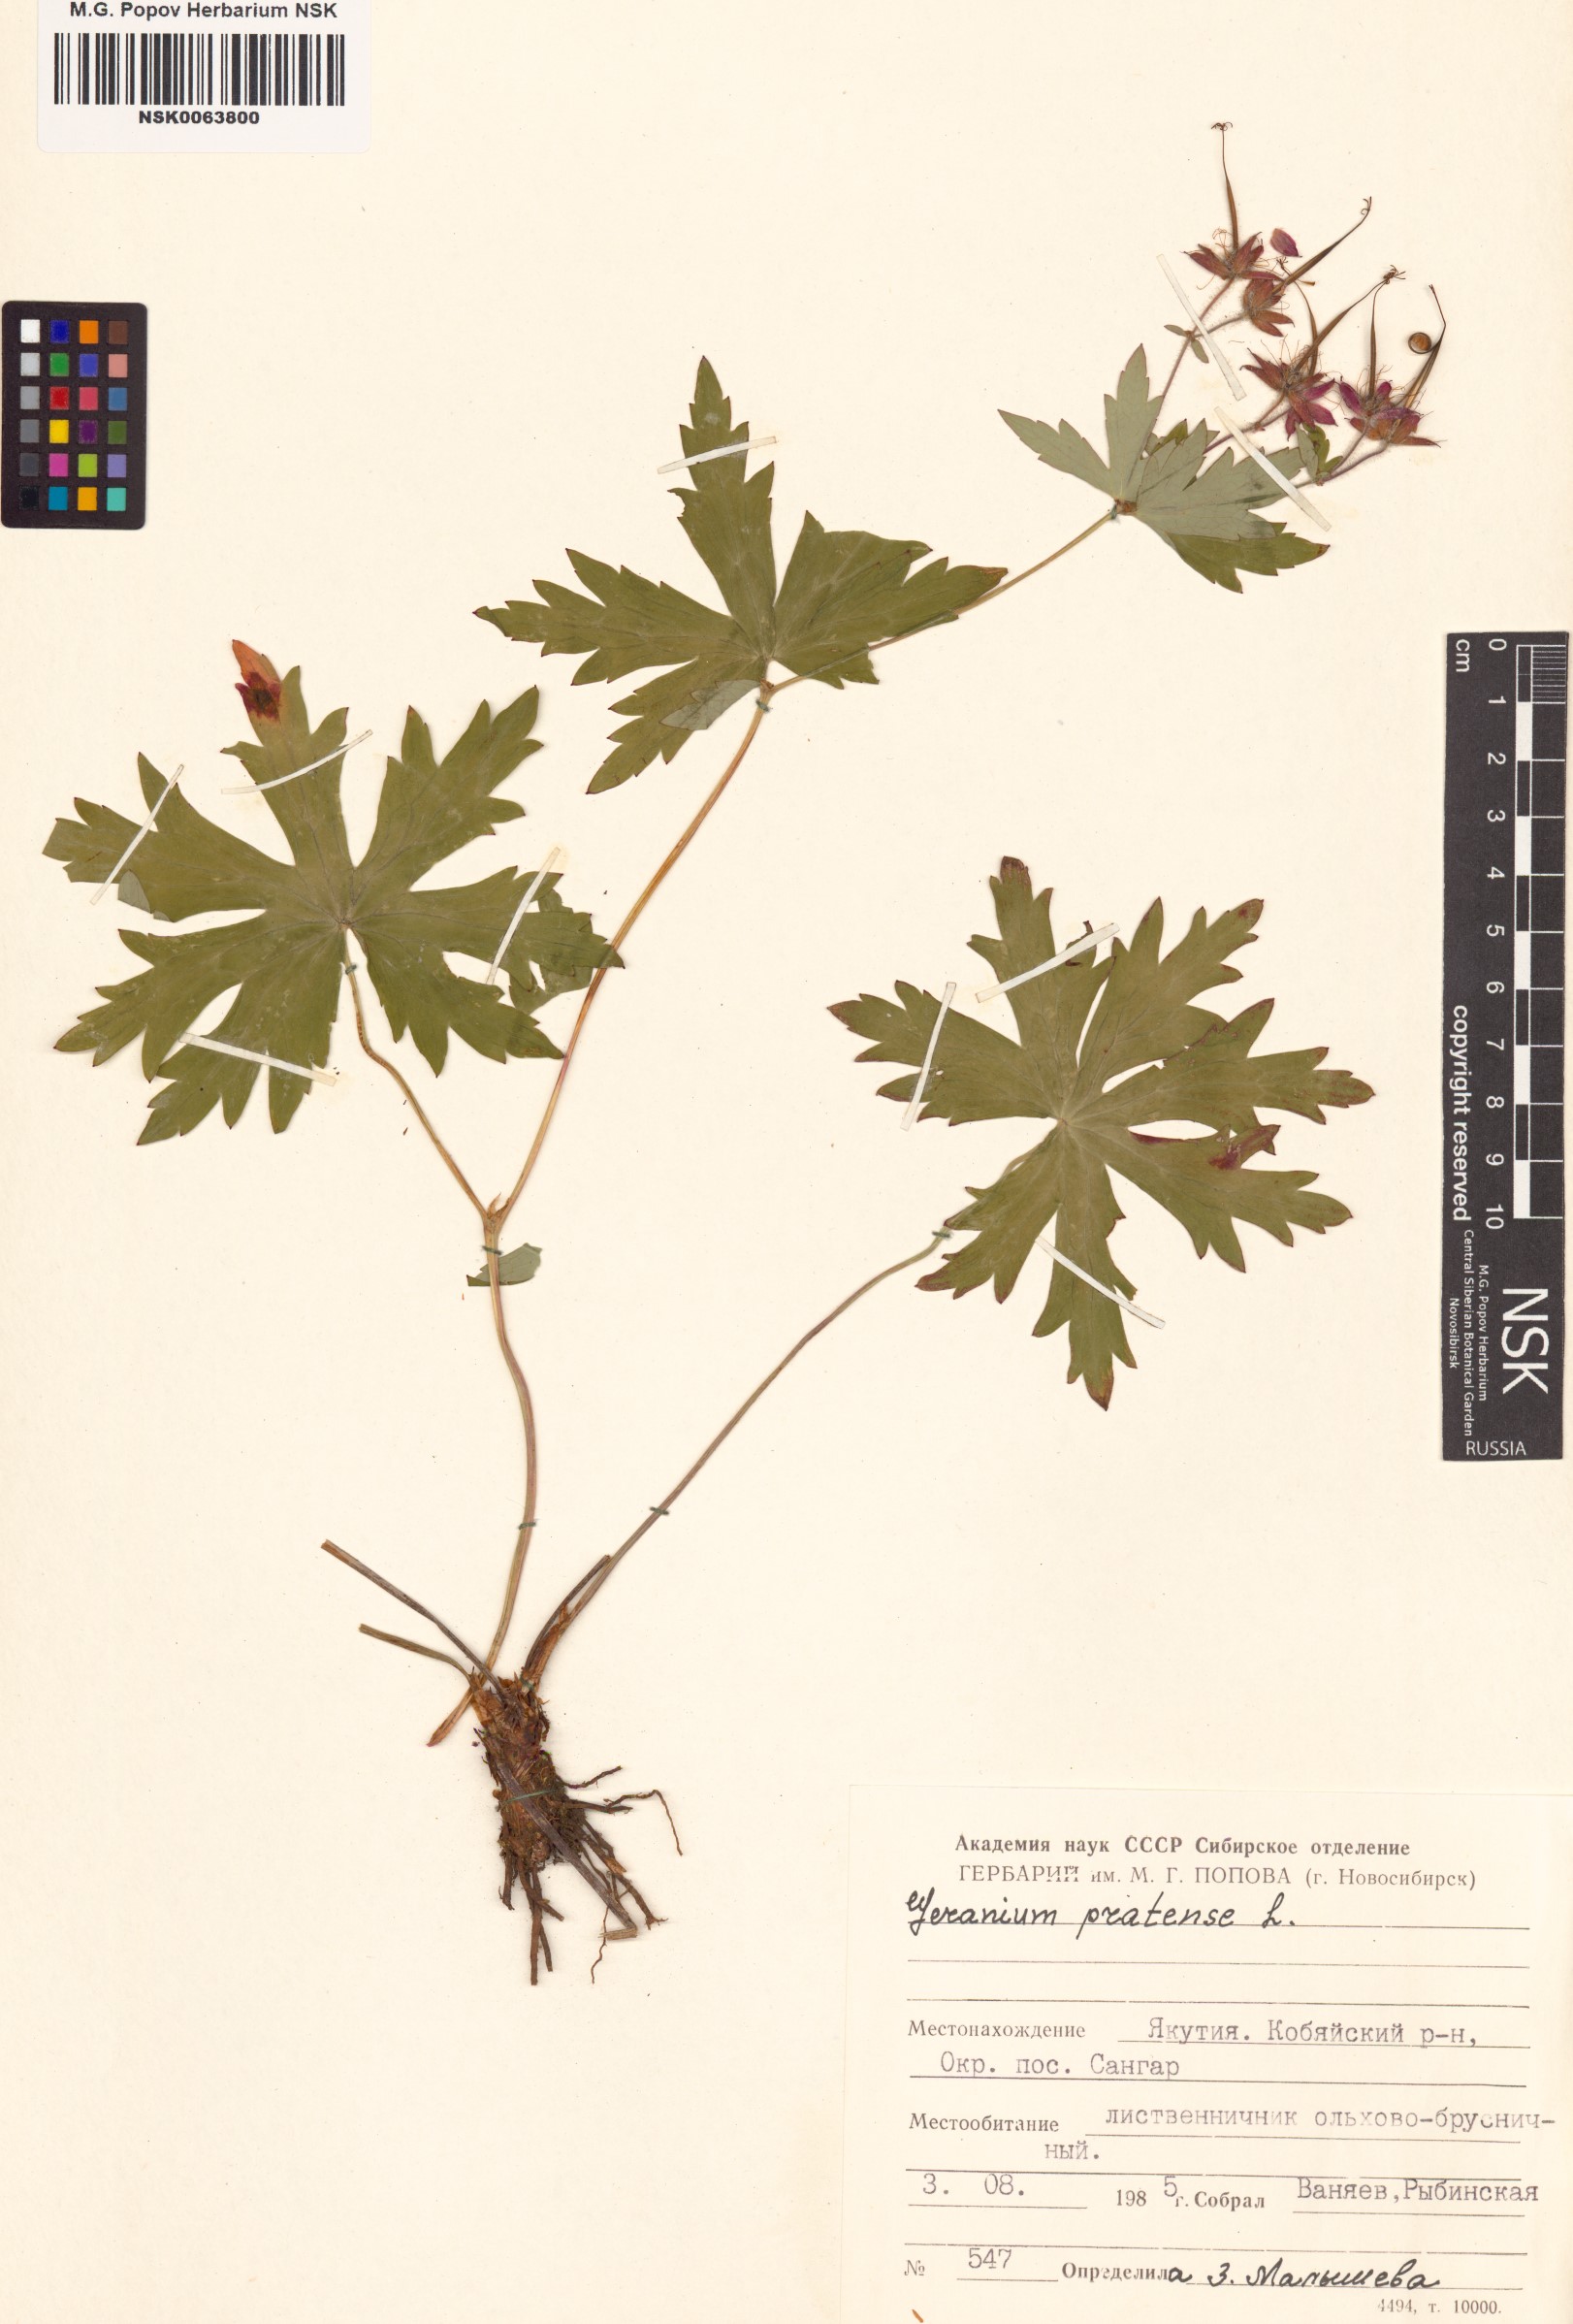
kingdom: Plantae
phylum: Tracheophyta
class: Magnoliopsida
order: Geraniales
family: Geraniaceae
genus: Geranium
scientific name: Geranium pratense
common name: Meadow crane's-bill
